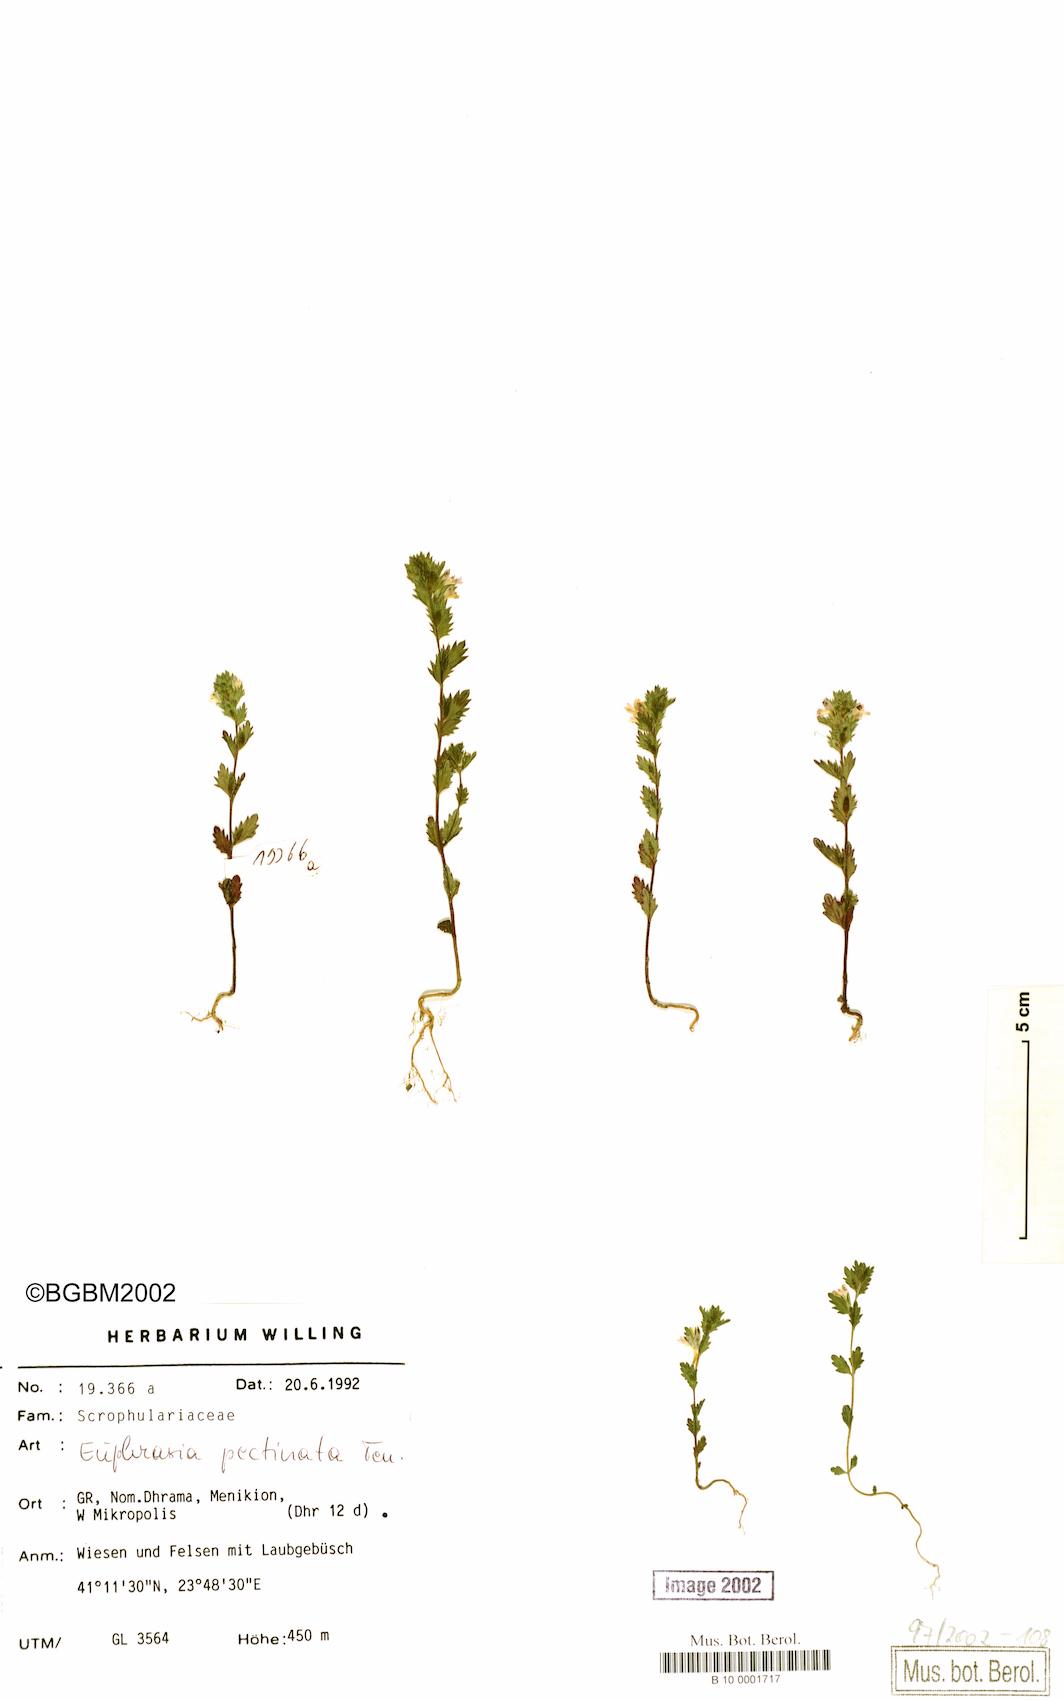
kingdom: Plantae
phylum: Tracheophyta
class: Magnoliopsida
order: Lamiales
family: Orobanchaceae
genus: Euphrasia
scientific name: Euphrasia pectinata
